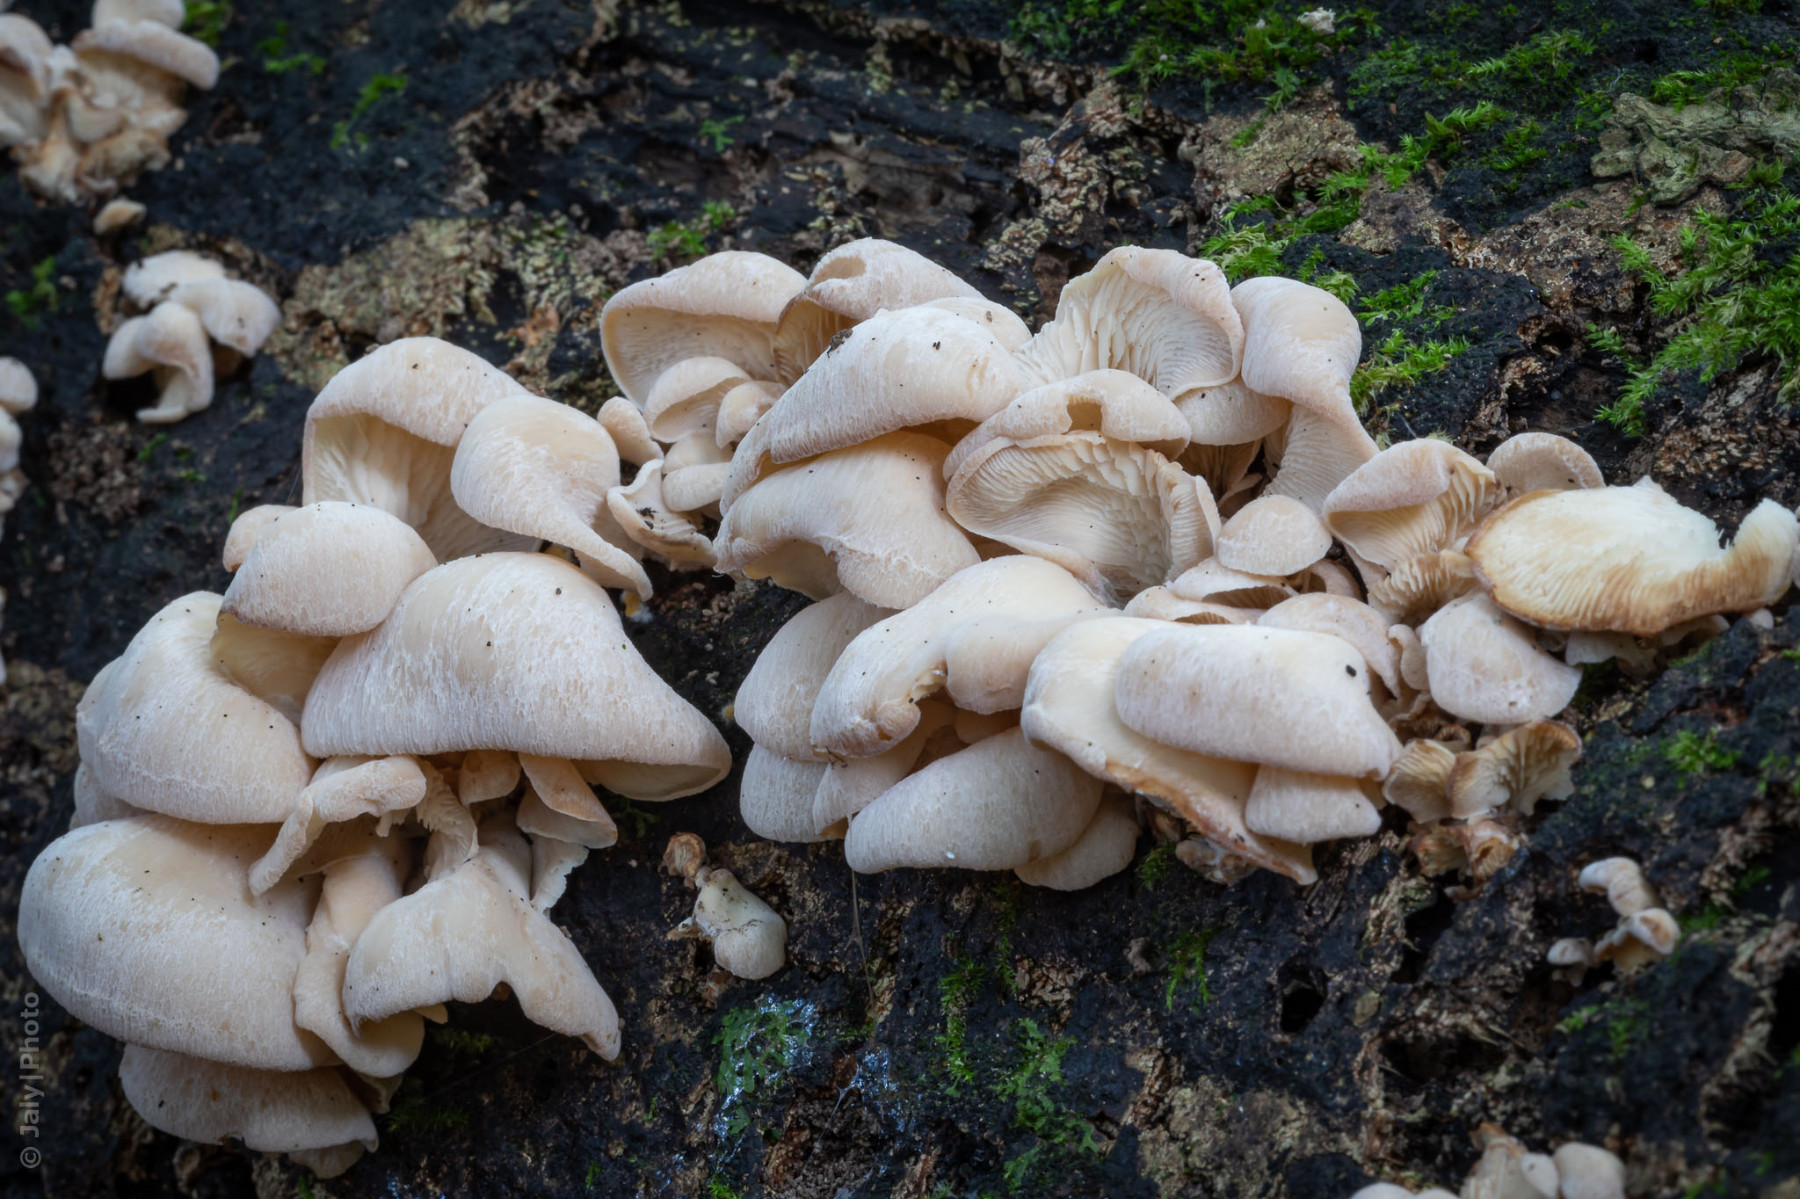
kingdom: Fungi
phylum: Basidiomycota
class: Agaricomycetes
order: Russulales
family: Auriscalpiaceae
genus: Lentinellus
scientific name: Lentinellus ursinus
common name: børstehåret savbladhat
